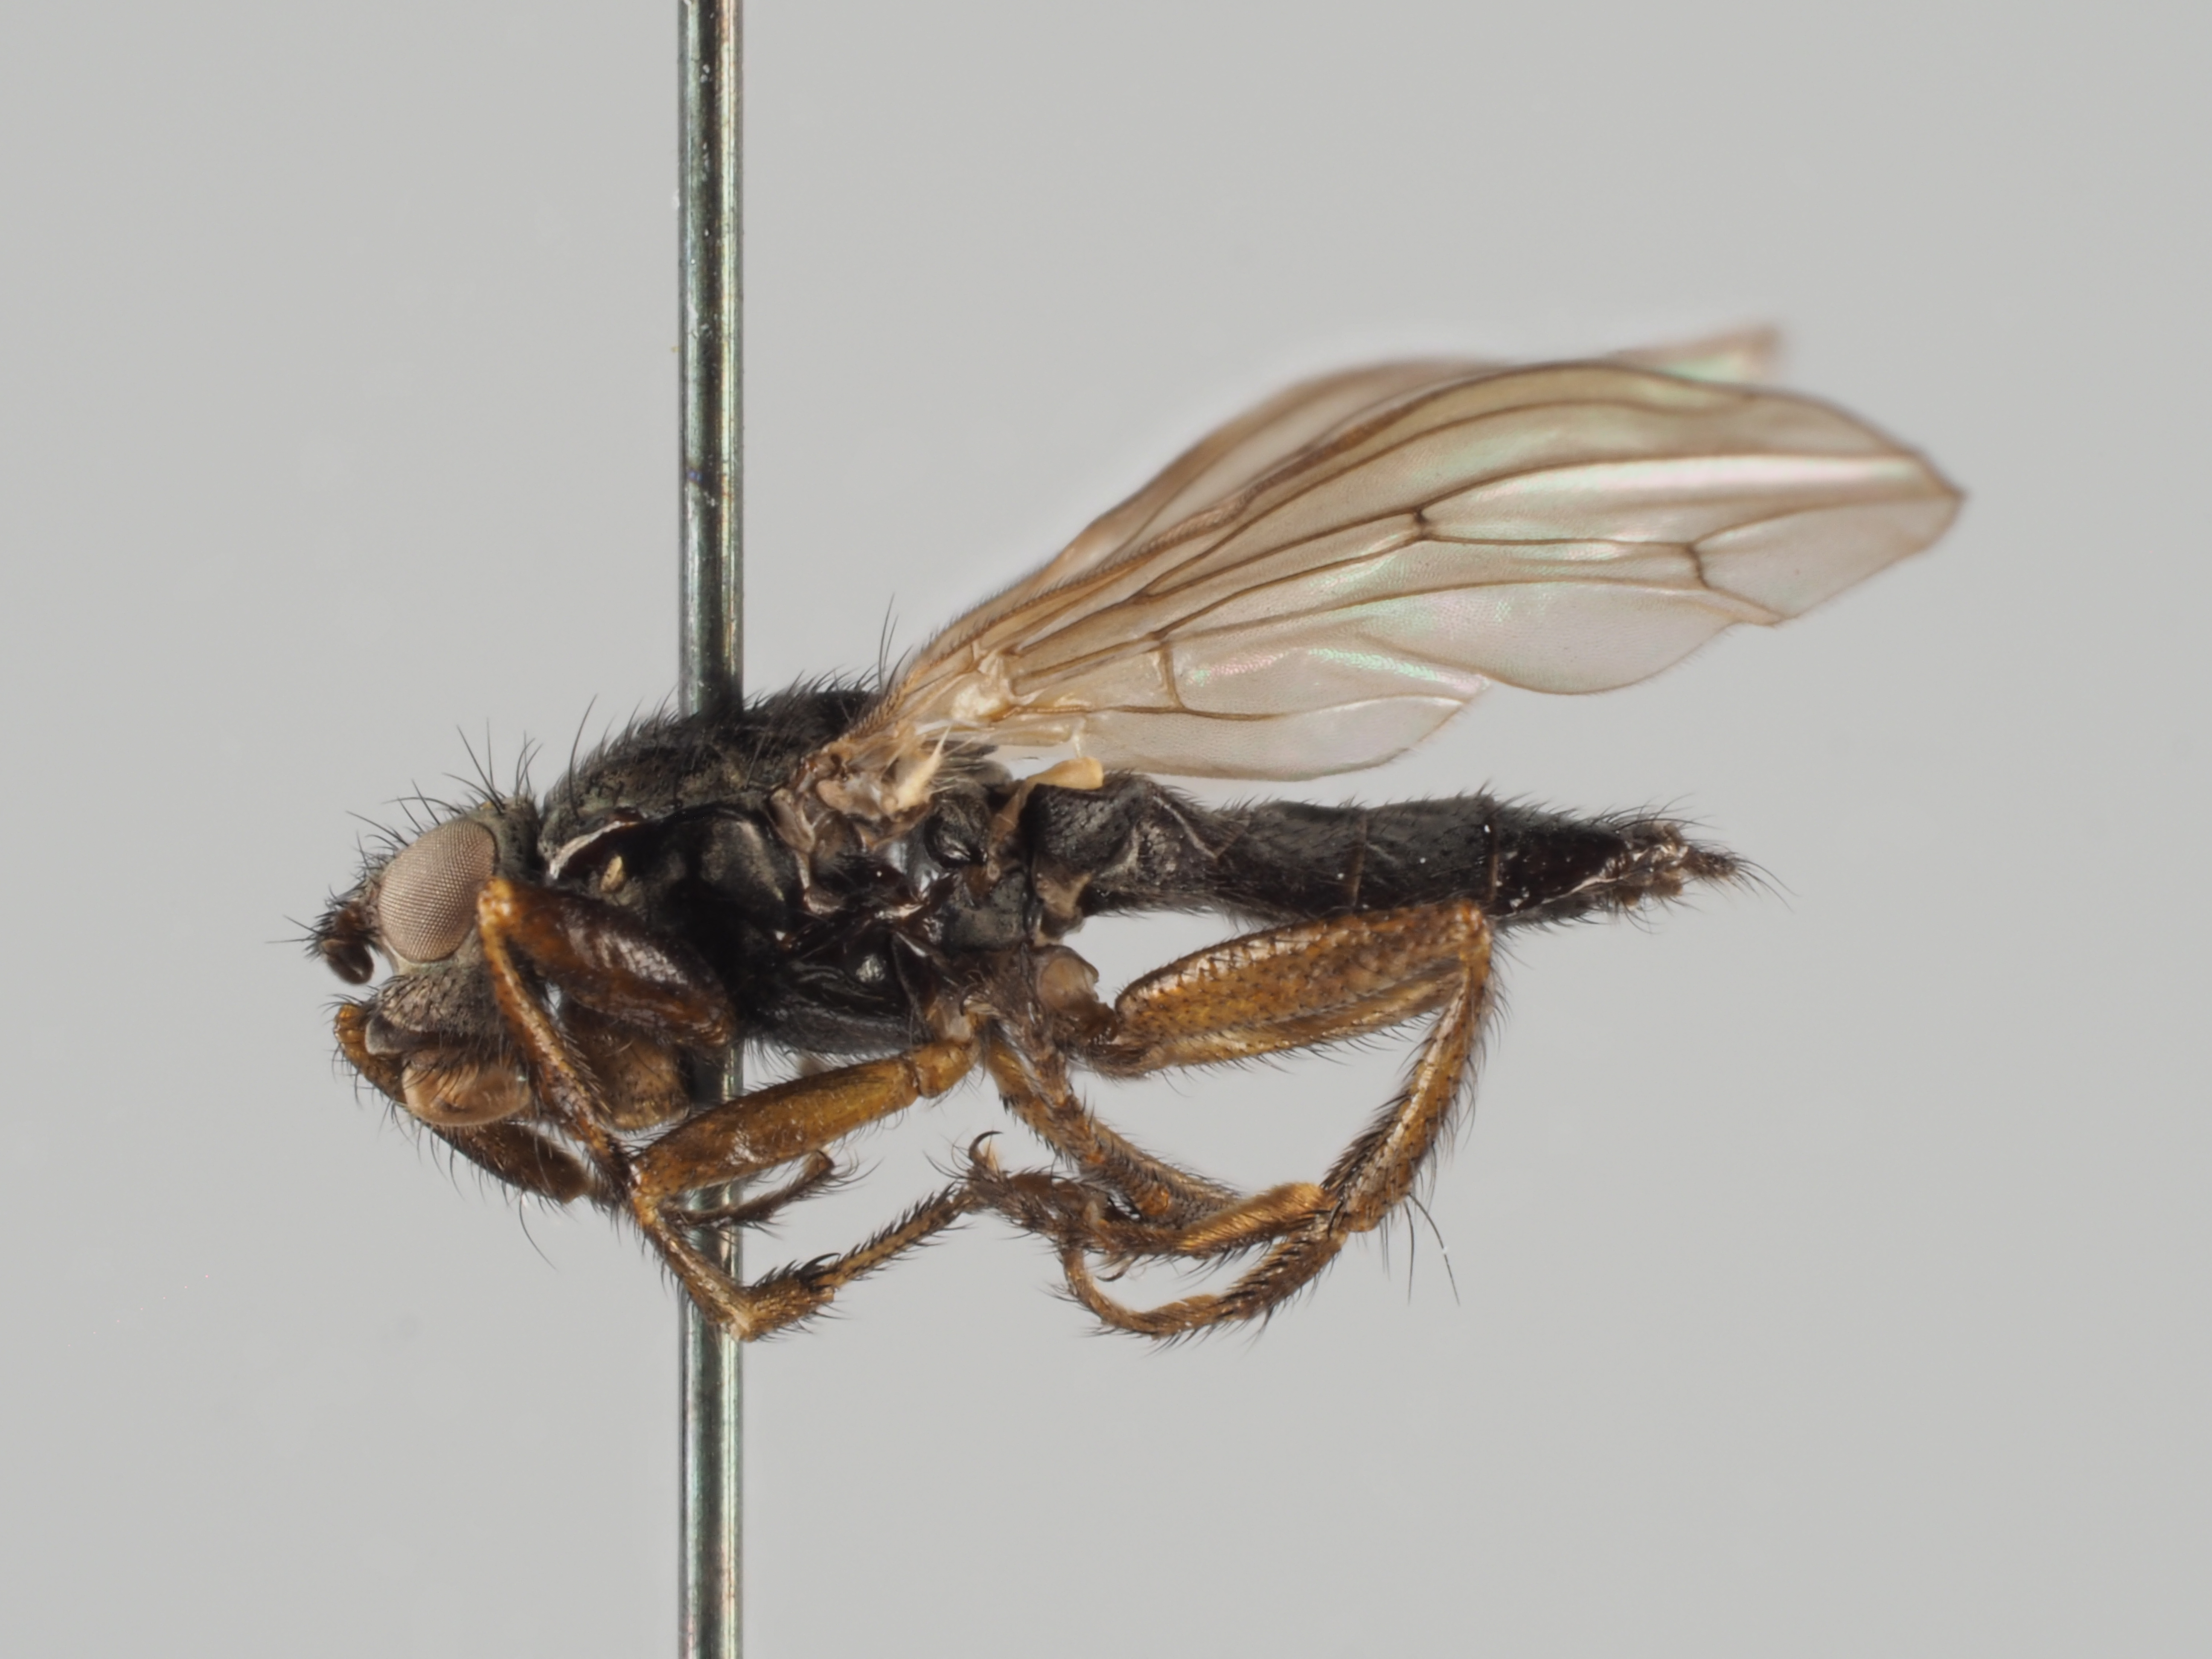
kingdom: Animalia
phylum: Arthropoda
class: Insecta
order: Diptera
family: Coelopidae
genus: Coelopa
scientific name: Coelopa frigida
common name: Kelp fly
